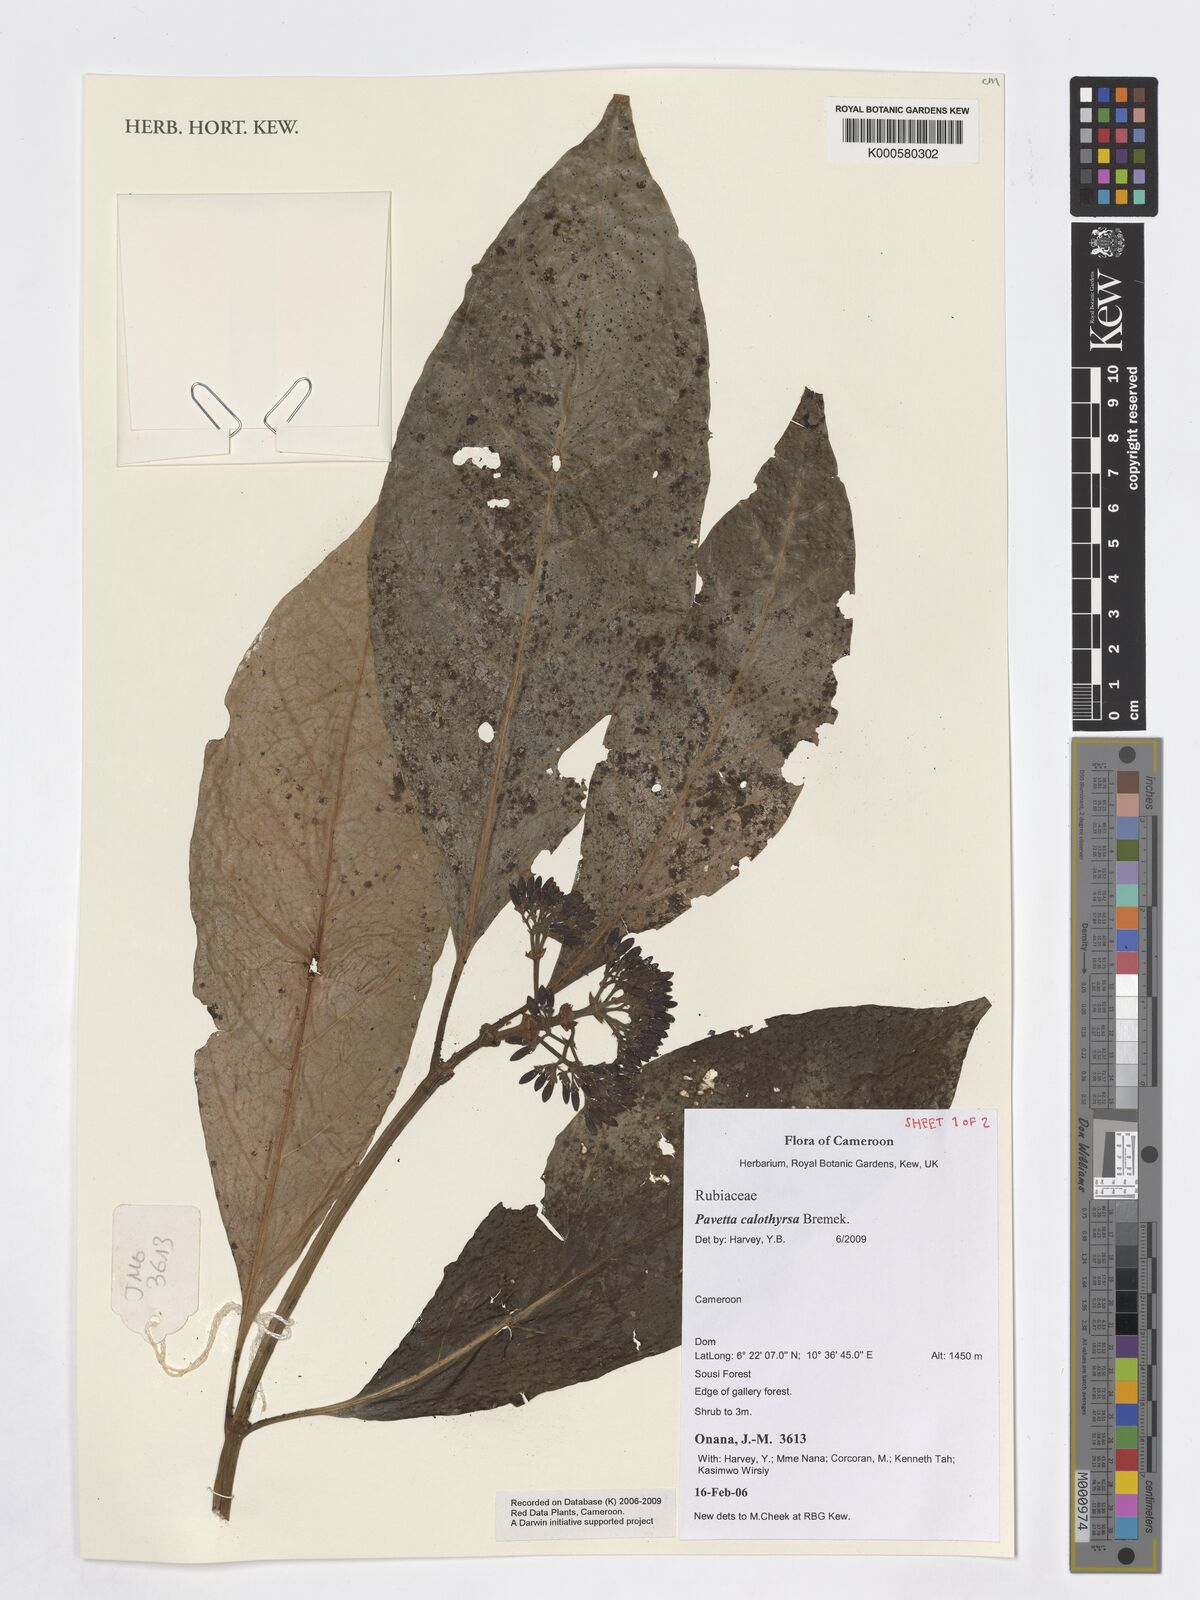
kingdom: Plantae
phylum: Tracheophyta
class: Magnoliopsida
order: Gentianales
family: Rubiaceae
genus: Pavetta
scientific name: Pavetta calothyrsa
